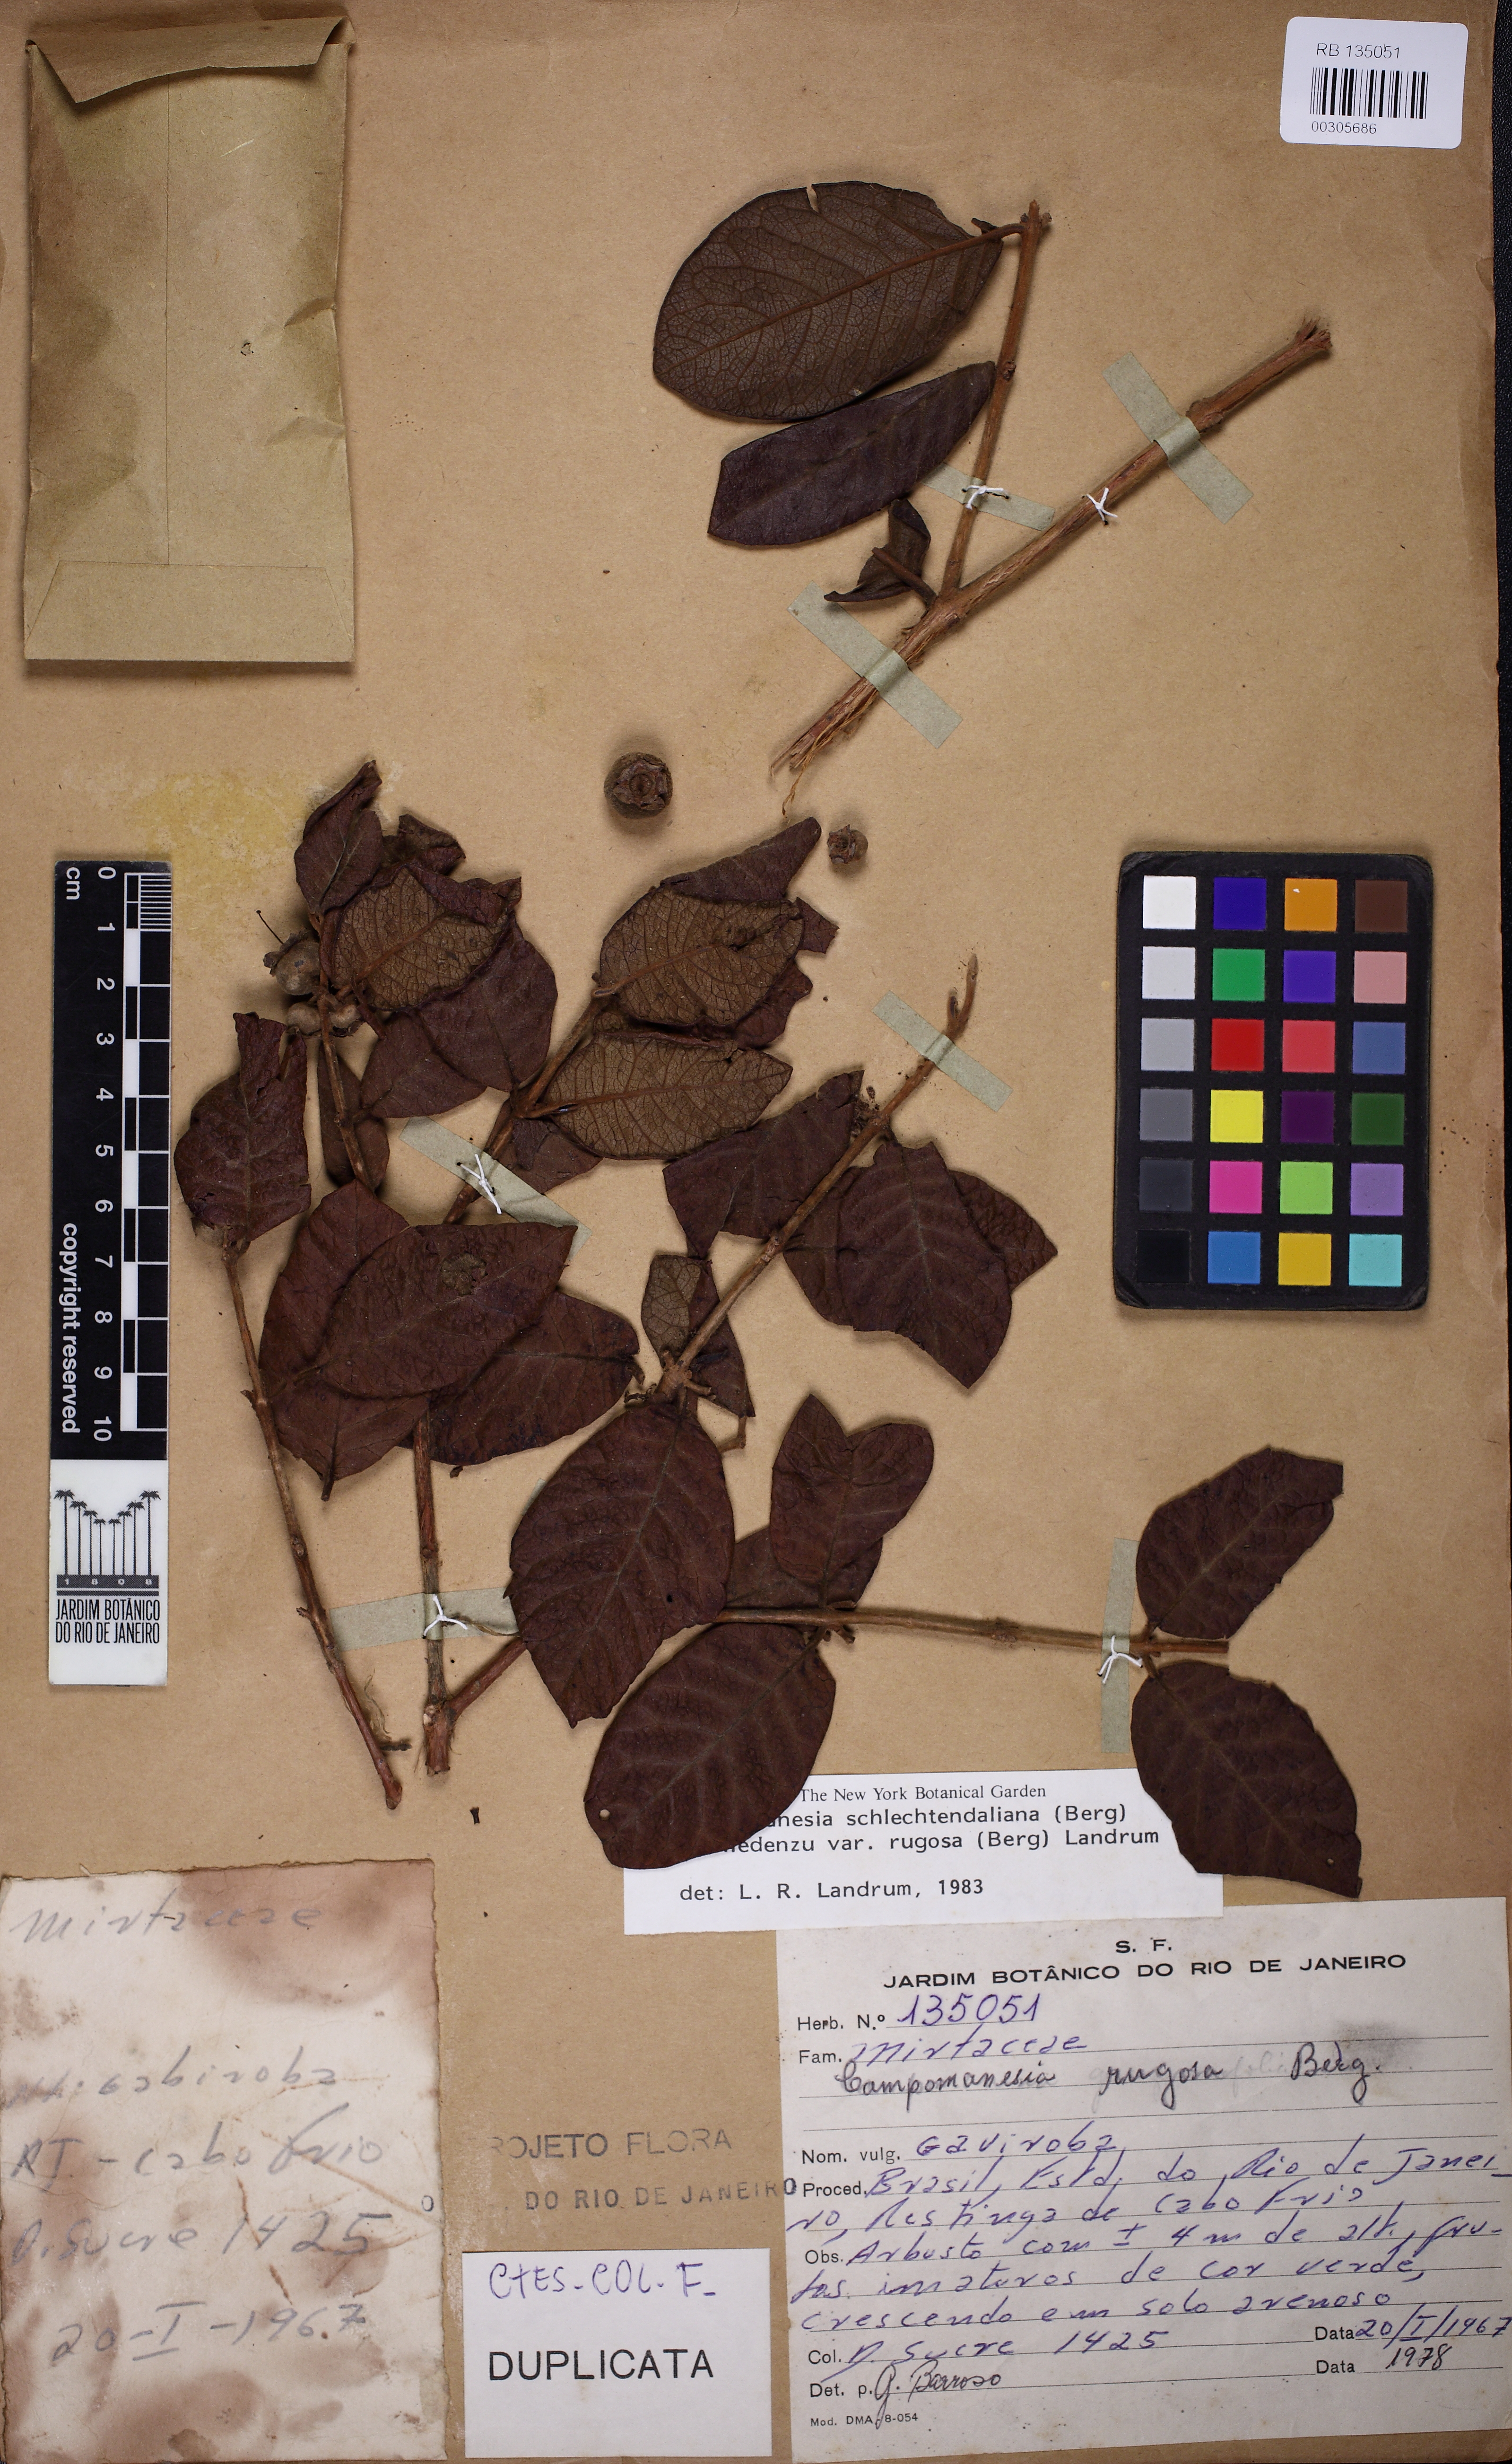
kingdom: Plantae
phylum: Tracheophyta
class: Magnoliopsida
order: Myrtales
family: Myrtaceae
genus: Campomanesia
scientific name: Campomanesia schlechtendaliana
